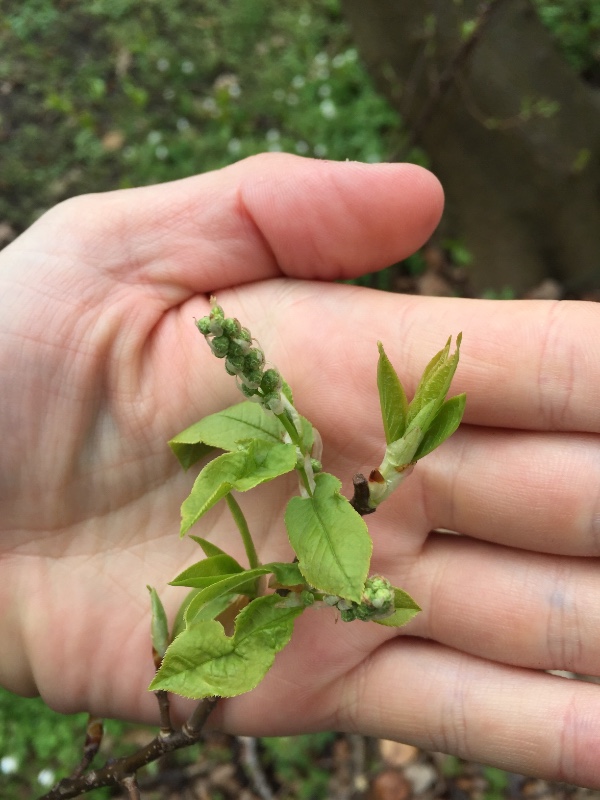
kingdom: Fungi
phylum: Basidiomycota
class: Agaricomycetes
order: Polyporales
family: Polyporaceae
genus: Lentinus
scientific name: Lentinus substrictus
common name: forårs-stilkporesvamp
